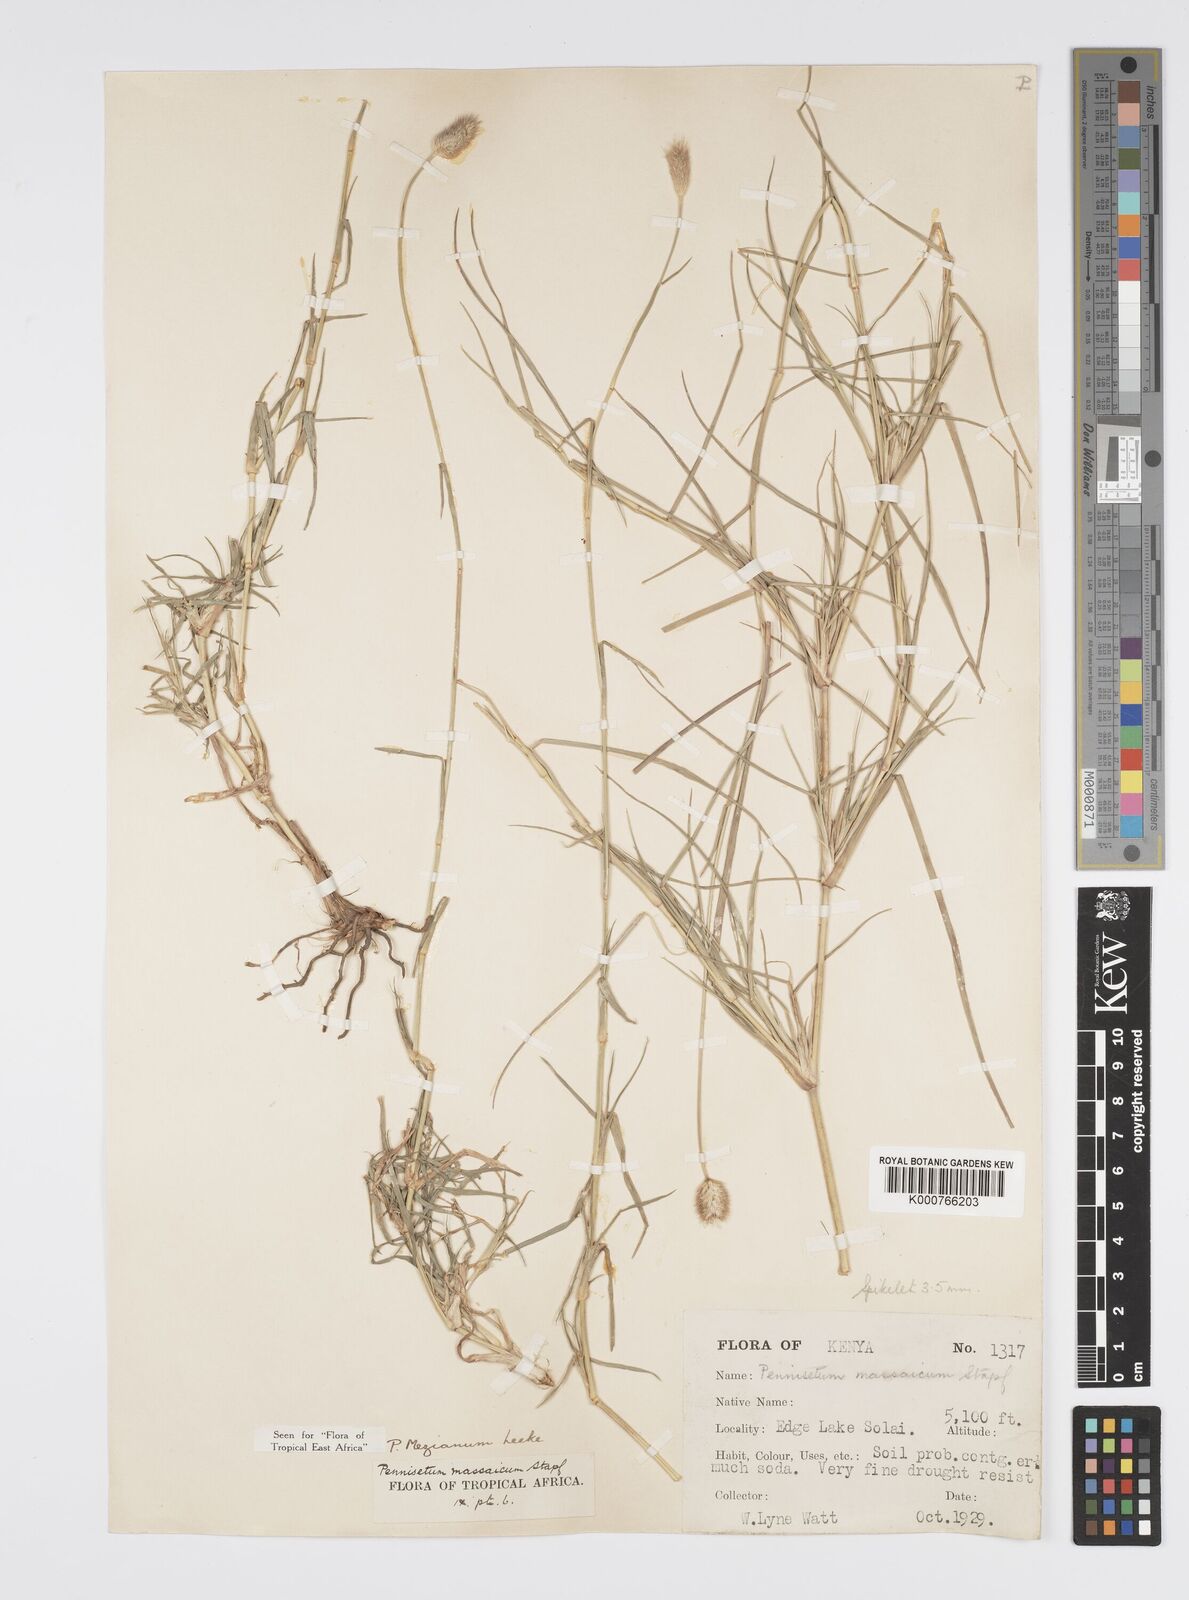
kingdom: Plantae
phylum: Tracheophyta
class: Liliopsida
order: Poales
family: Poaceae
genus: Cenchrus
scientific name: Cenchrus mezianus
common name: Bamboo grass
